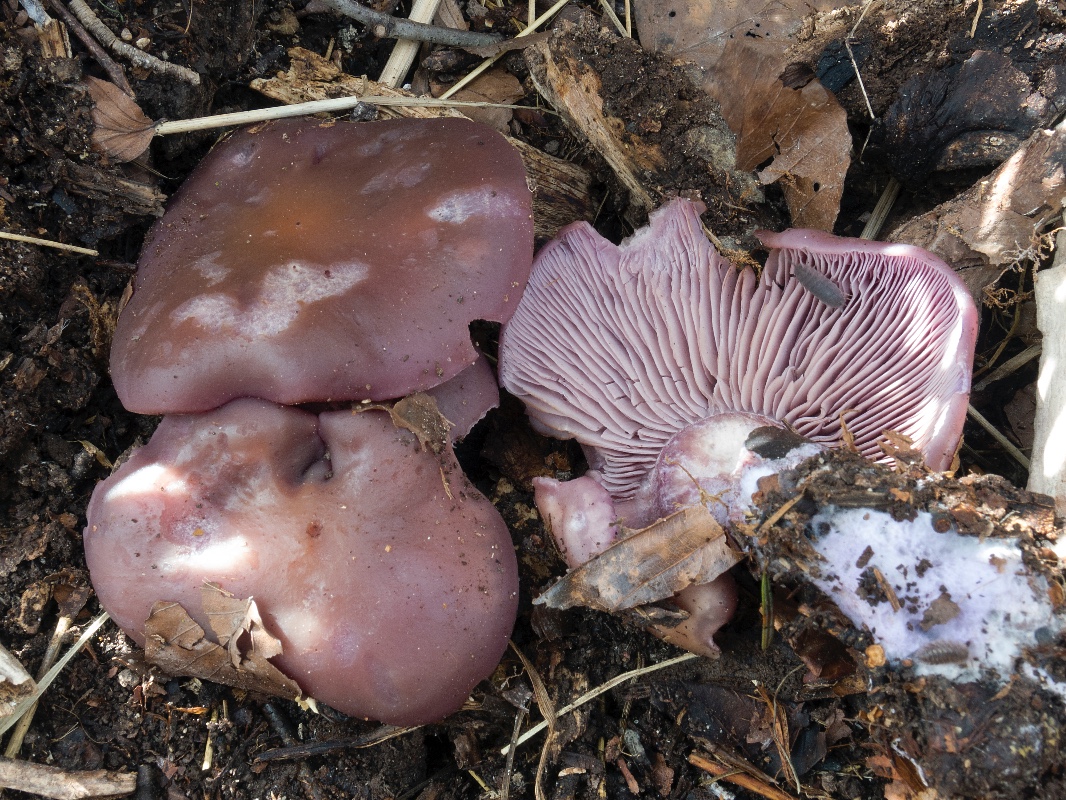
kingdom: Fungi
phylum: Basidiomycota
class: Agaricomycetes
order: Agaricales
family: Tricholomataceae
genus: Lepista
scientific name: Lepista nuda
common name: violet hekseringshat
